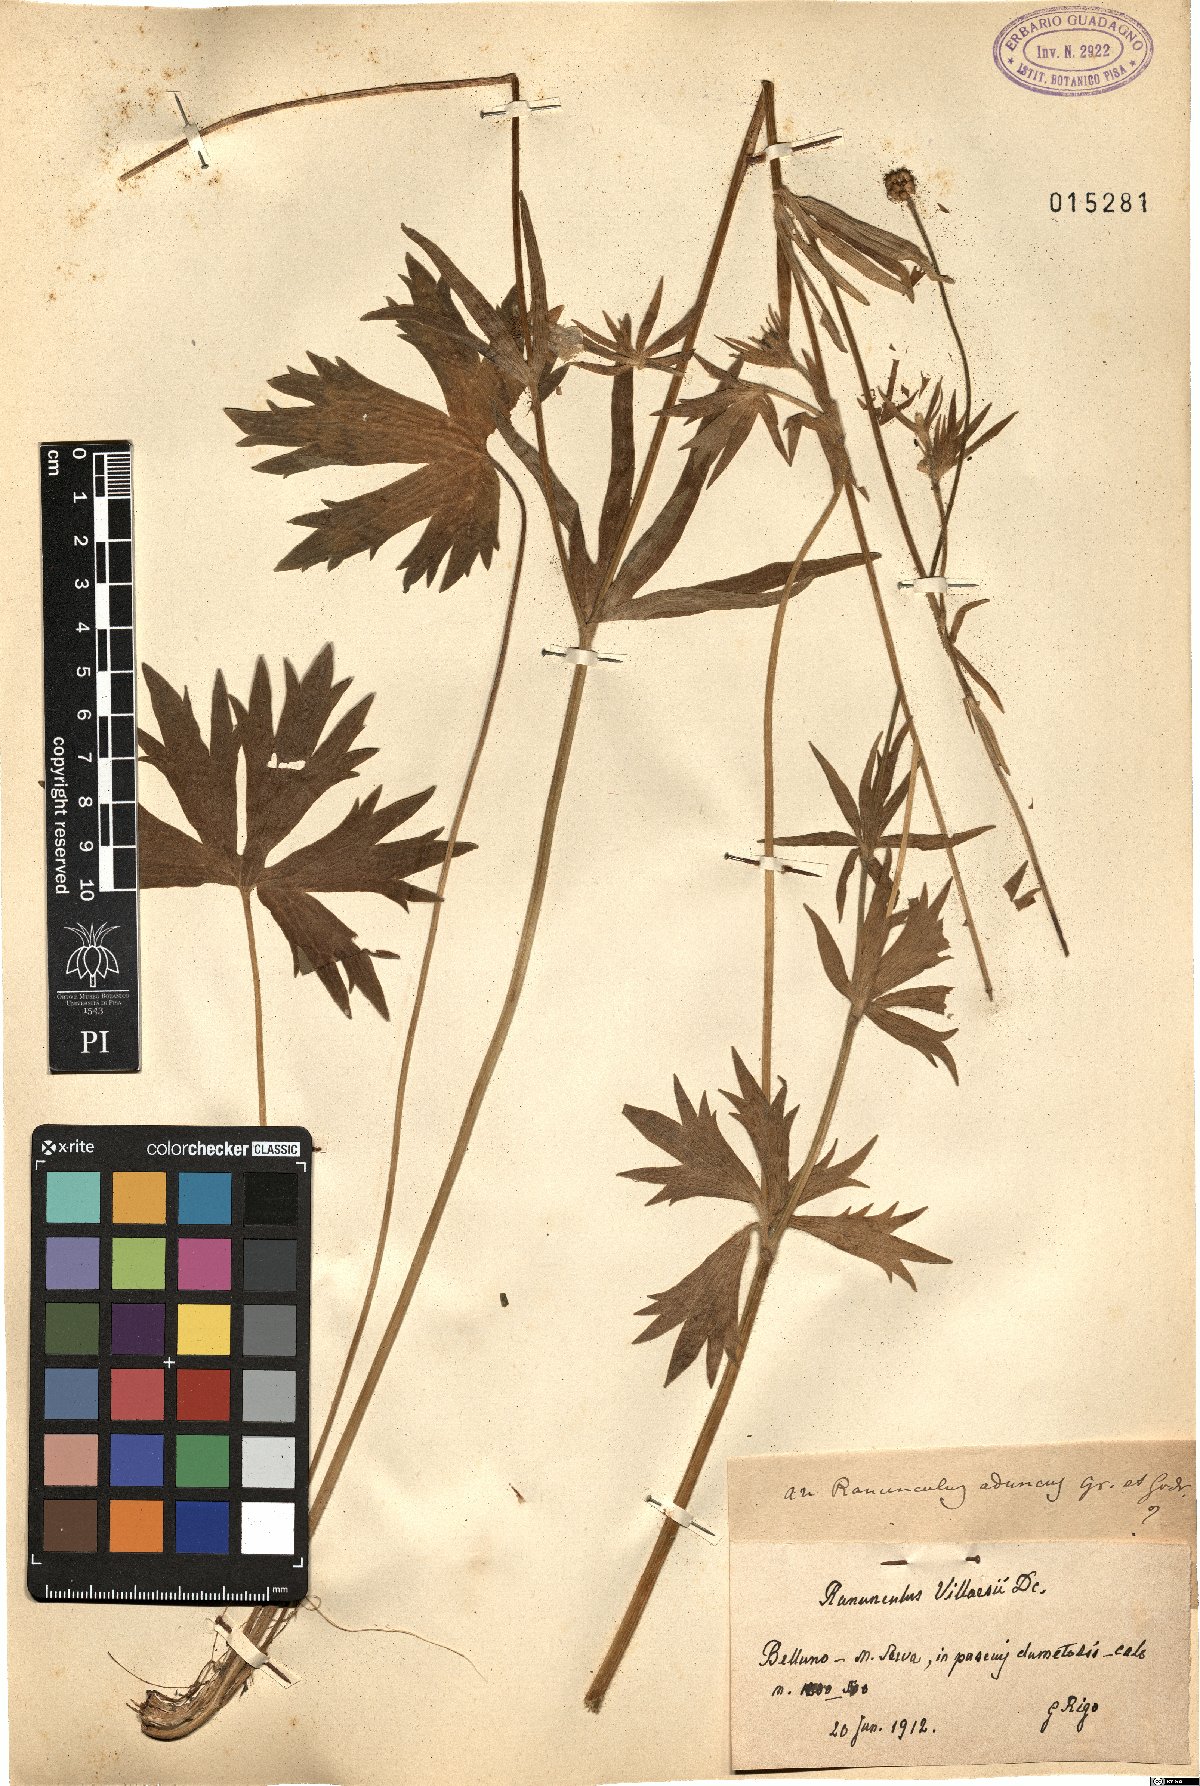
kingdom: Plantae
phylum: Tracheophyta
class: Magnoliopsida
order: Ranunculales
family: Ranunculaceae
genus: Ranunculus
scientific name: Ranunculus villarsii
